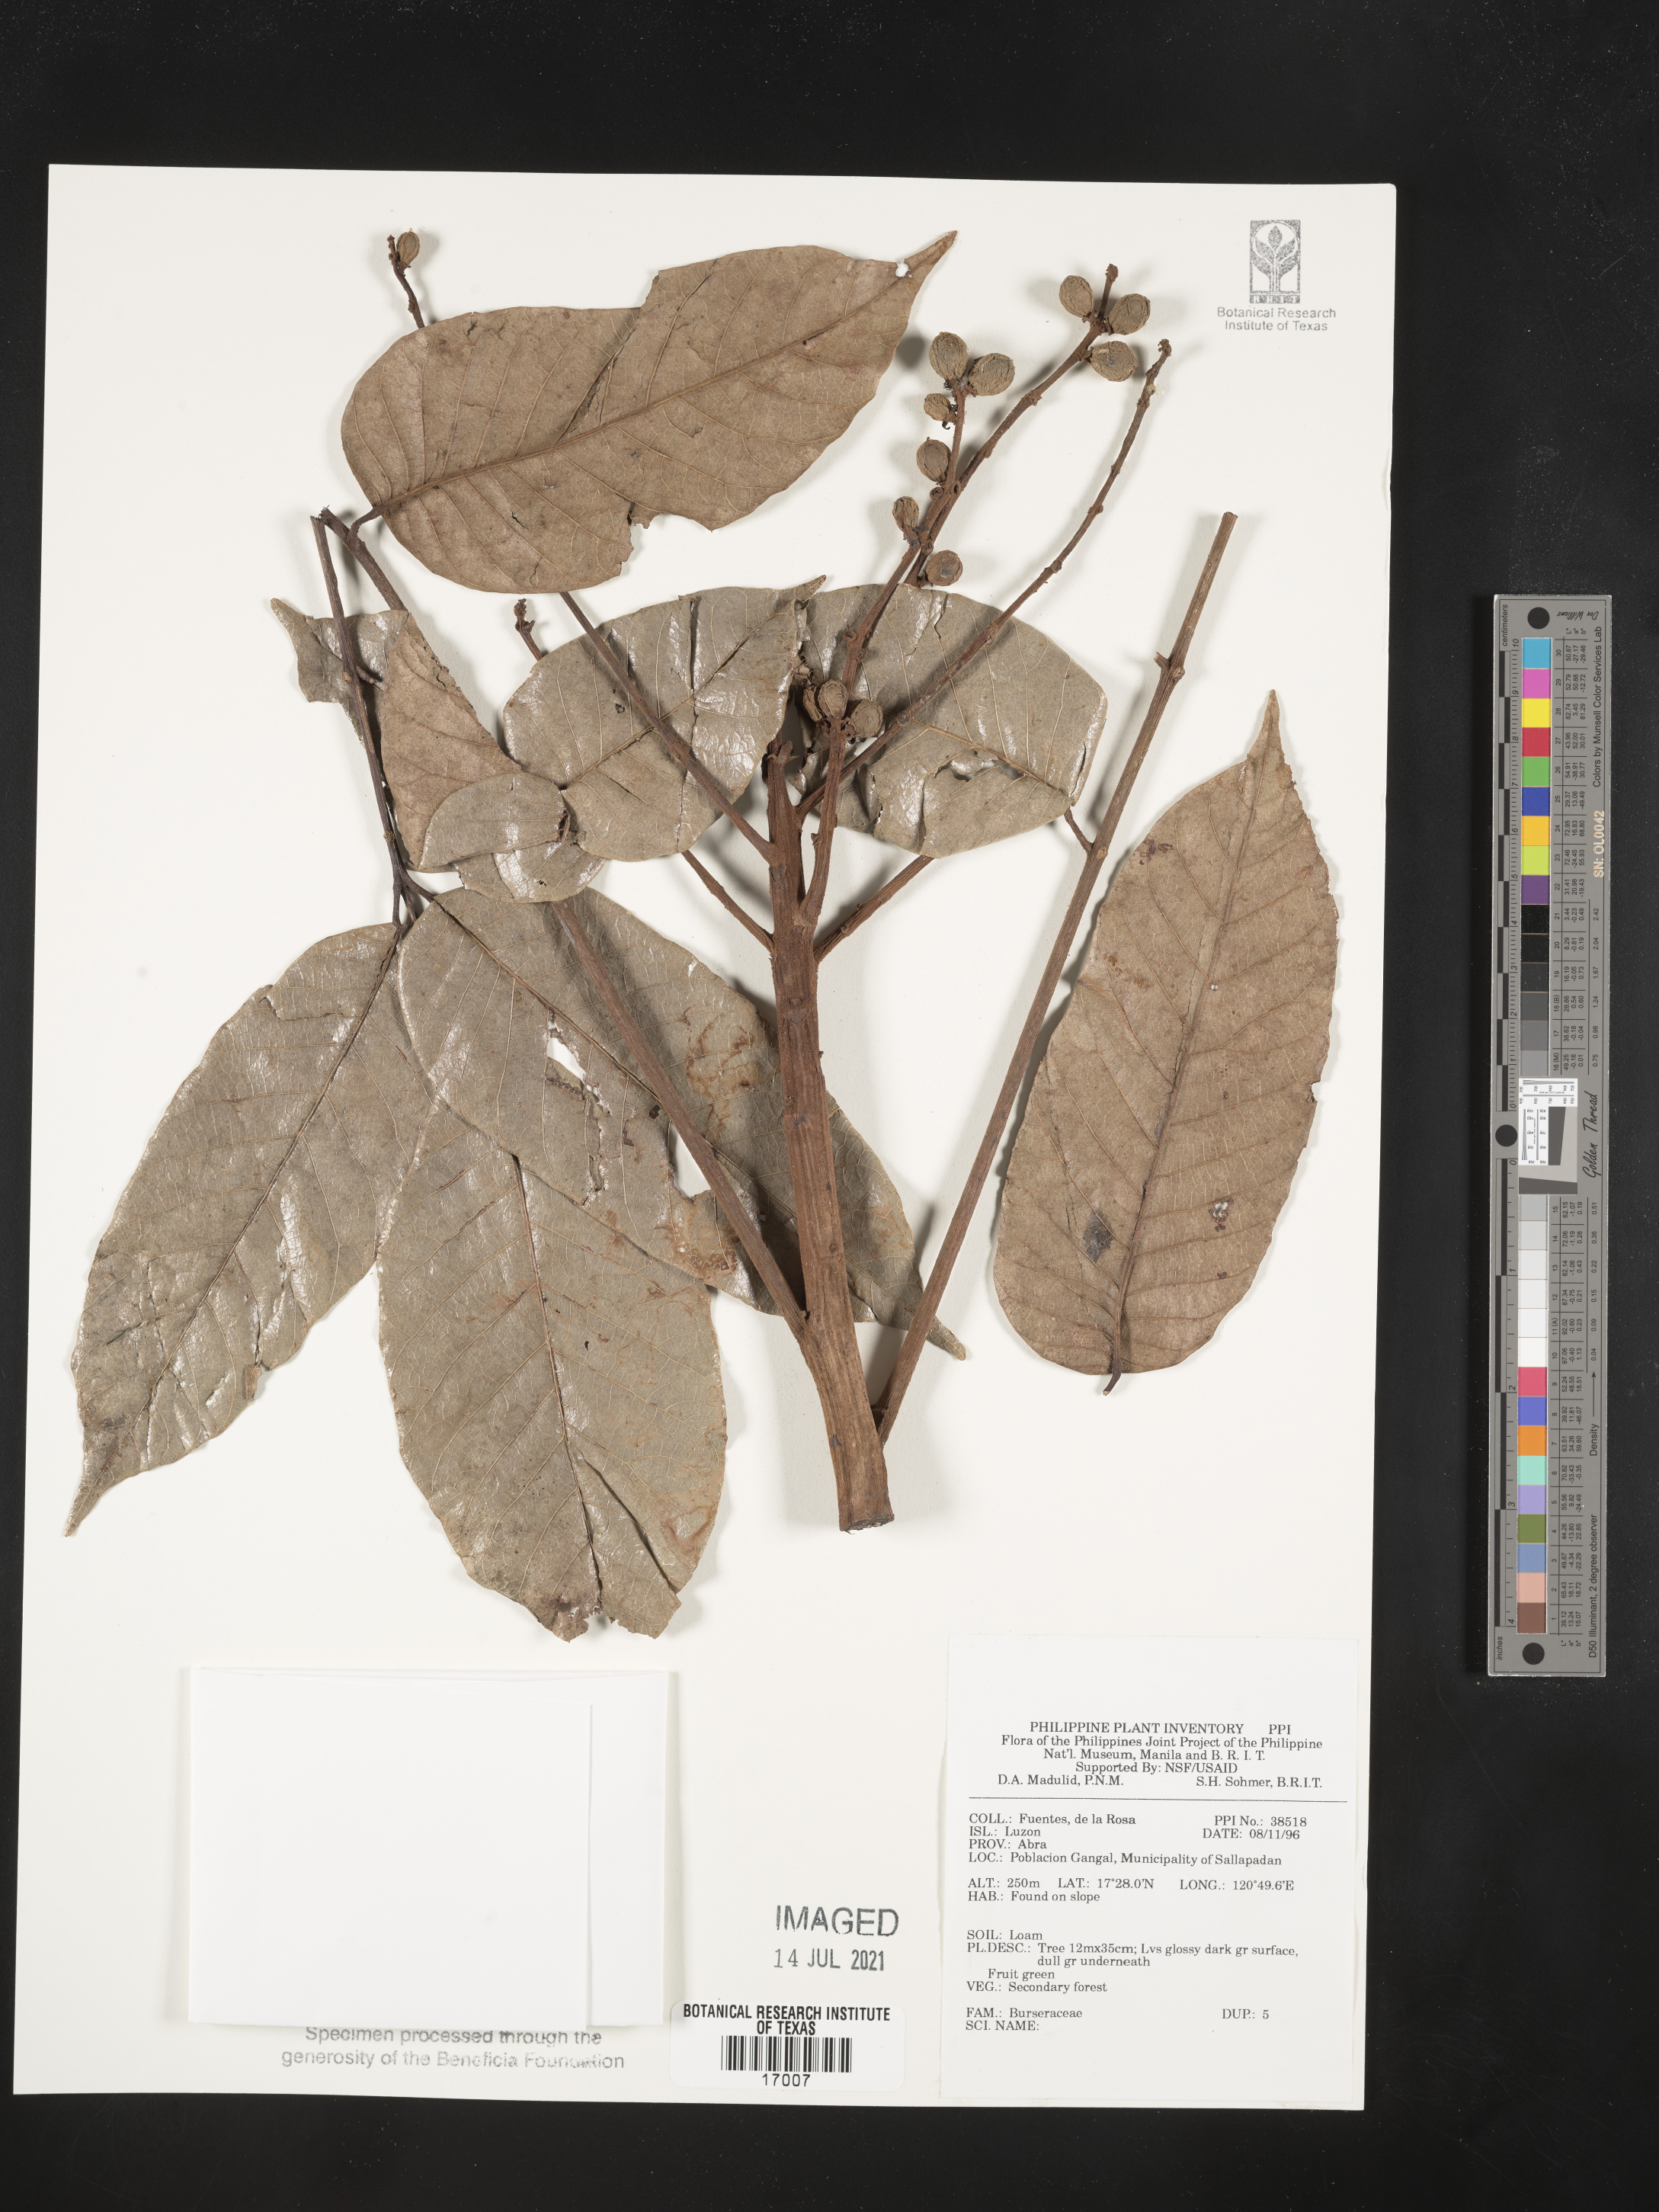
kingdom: Plantae
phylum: Tracheophyta
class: Magnoliopsida
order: Sapindales
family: Burseraceae
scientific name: Burseraceae
